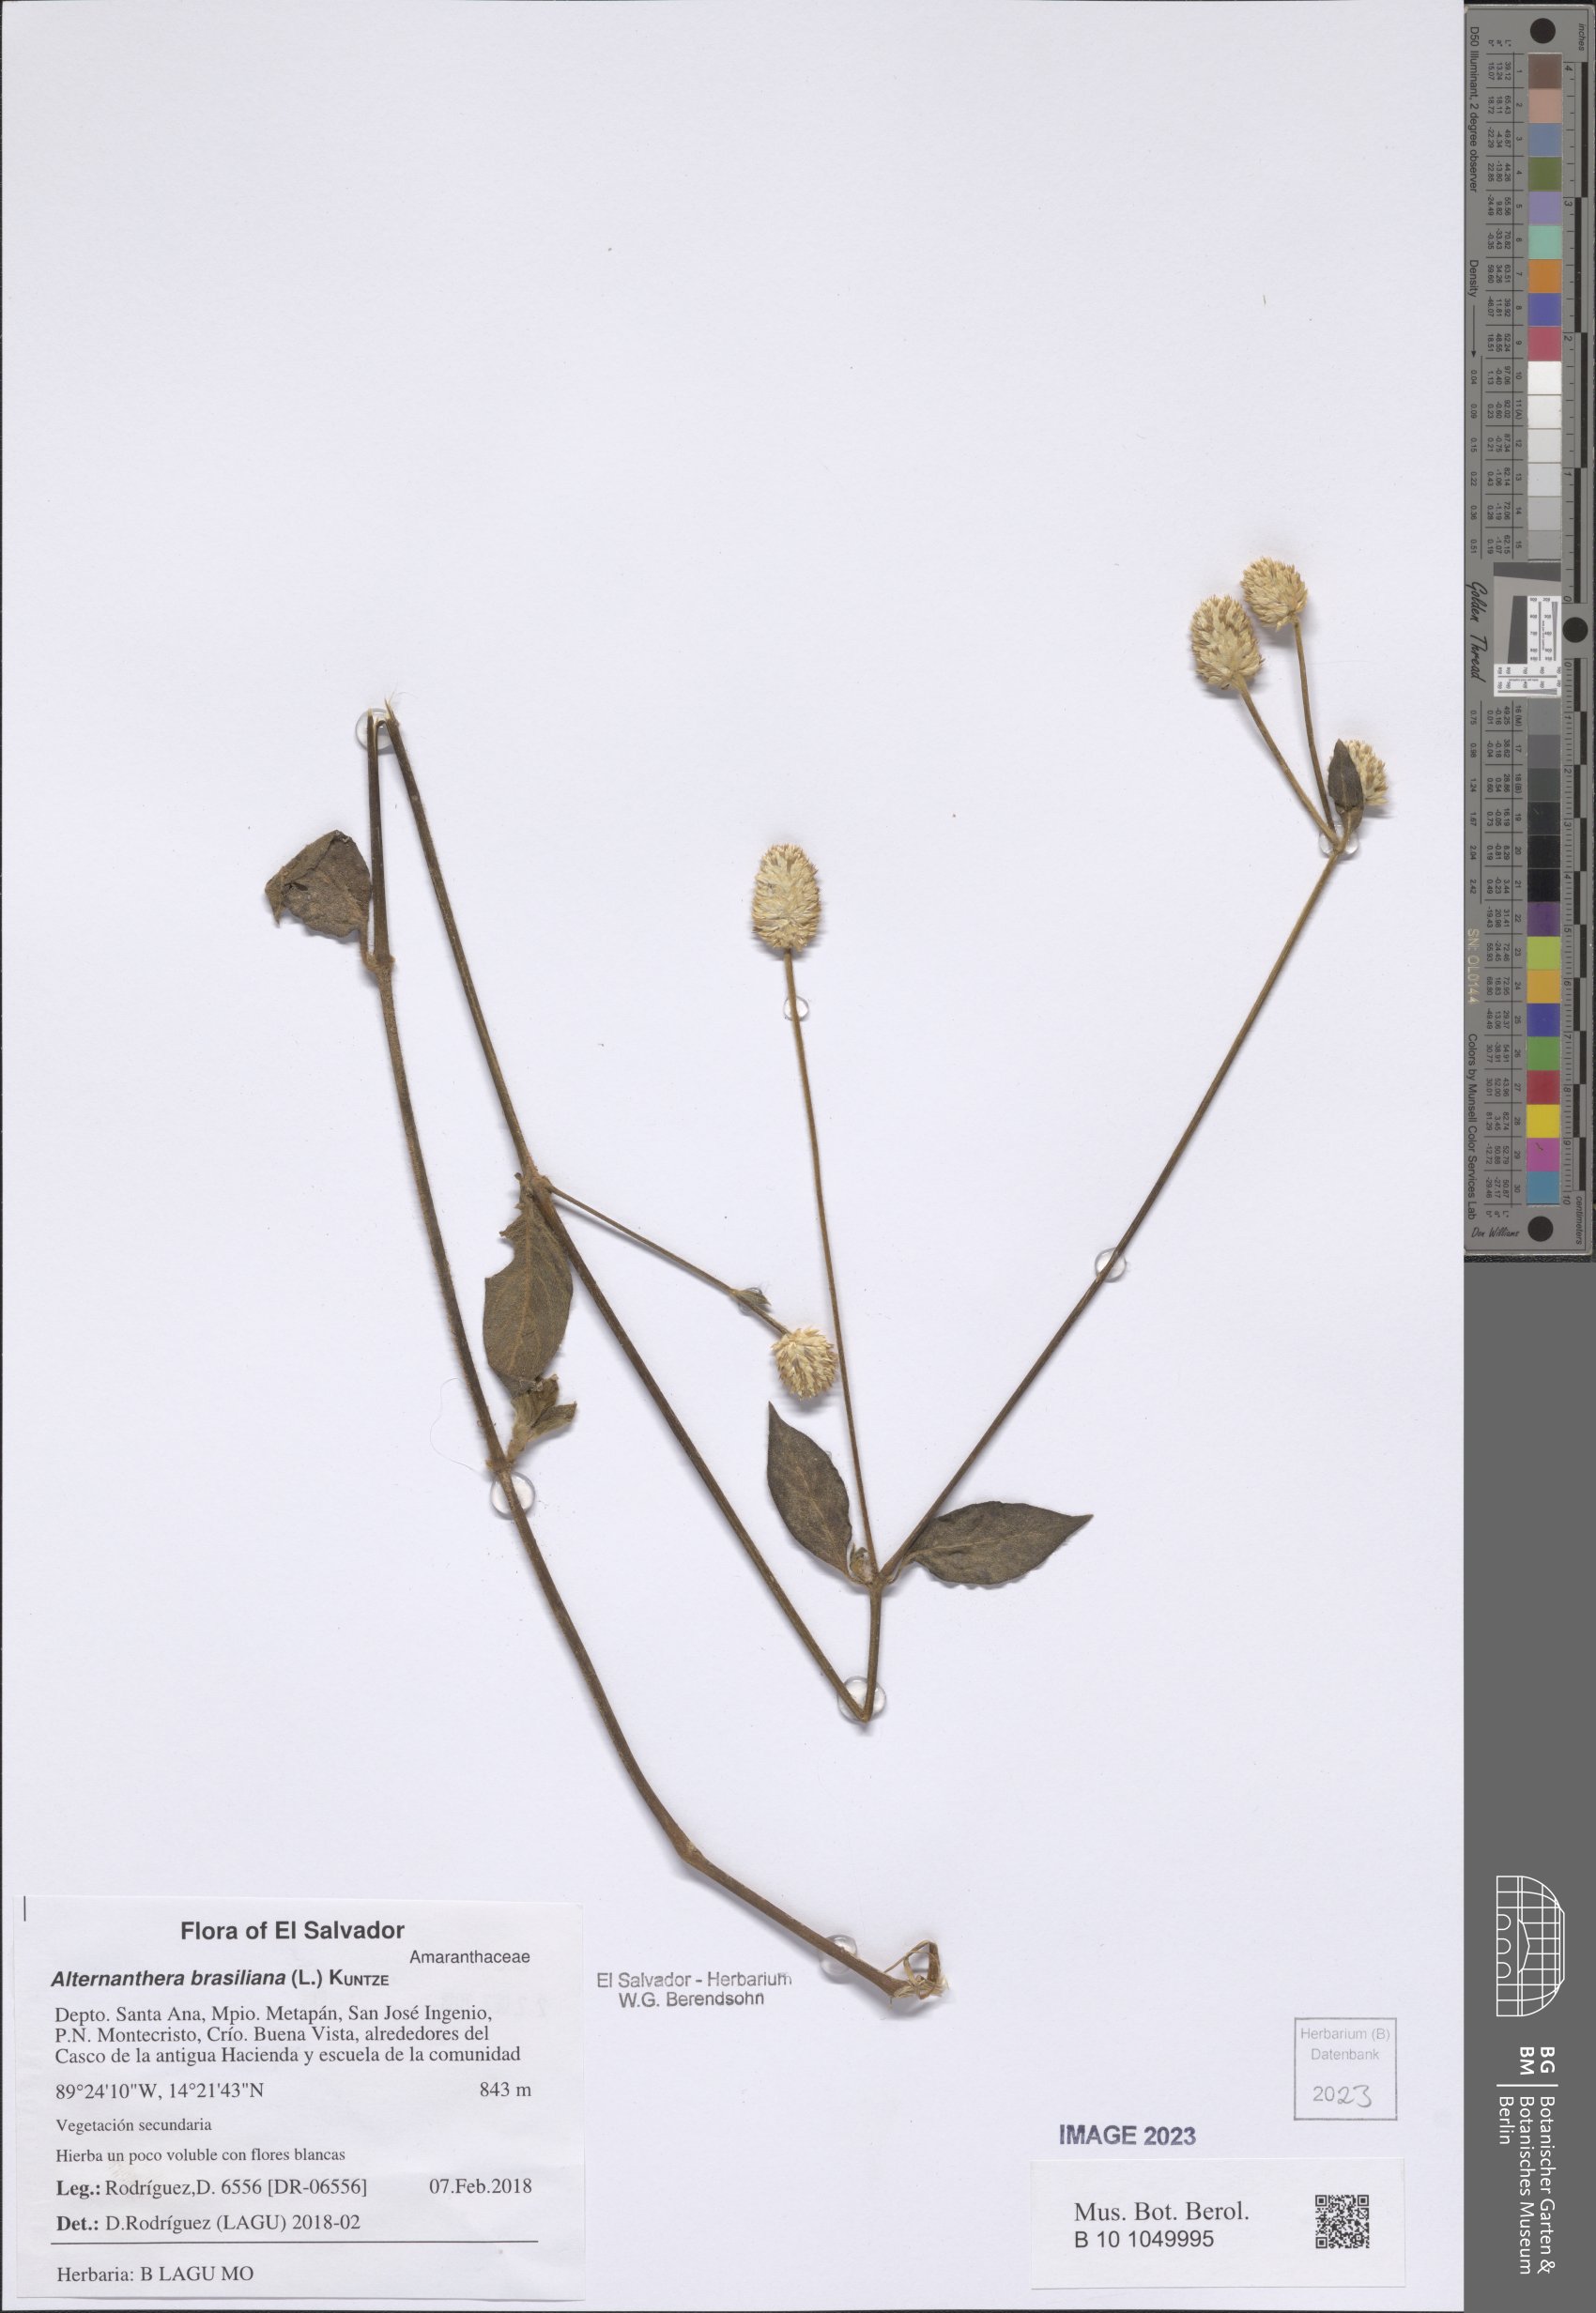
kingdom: Plantae
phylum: Tracheophyta
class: Magnoliopsida
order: Caryophyllales
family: Amaranthaceae
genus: Alternanthera
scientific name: Alternanthera brasiliana
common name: Brazilian joyweed
